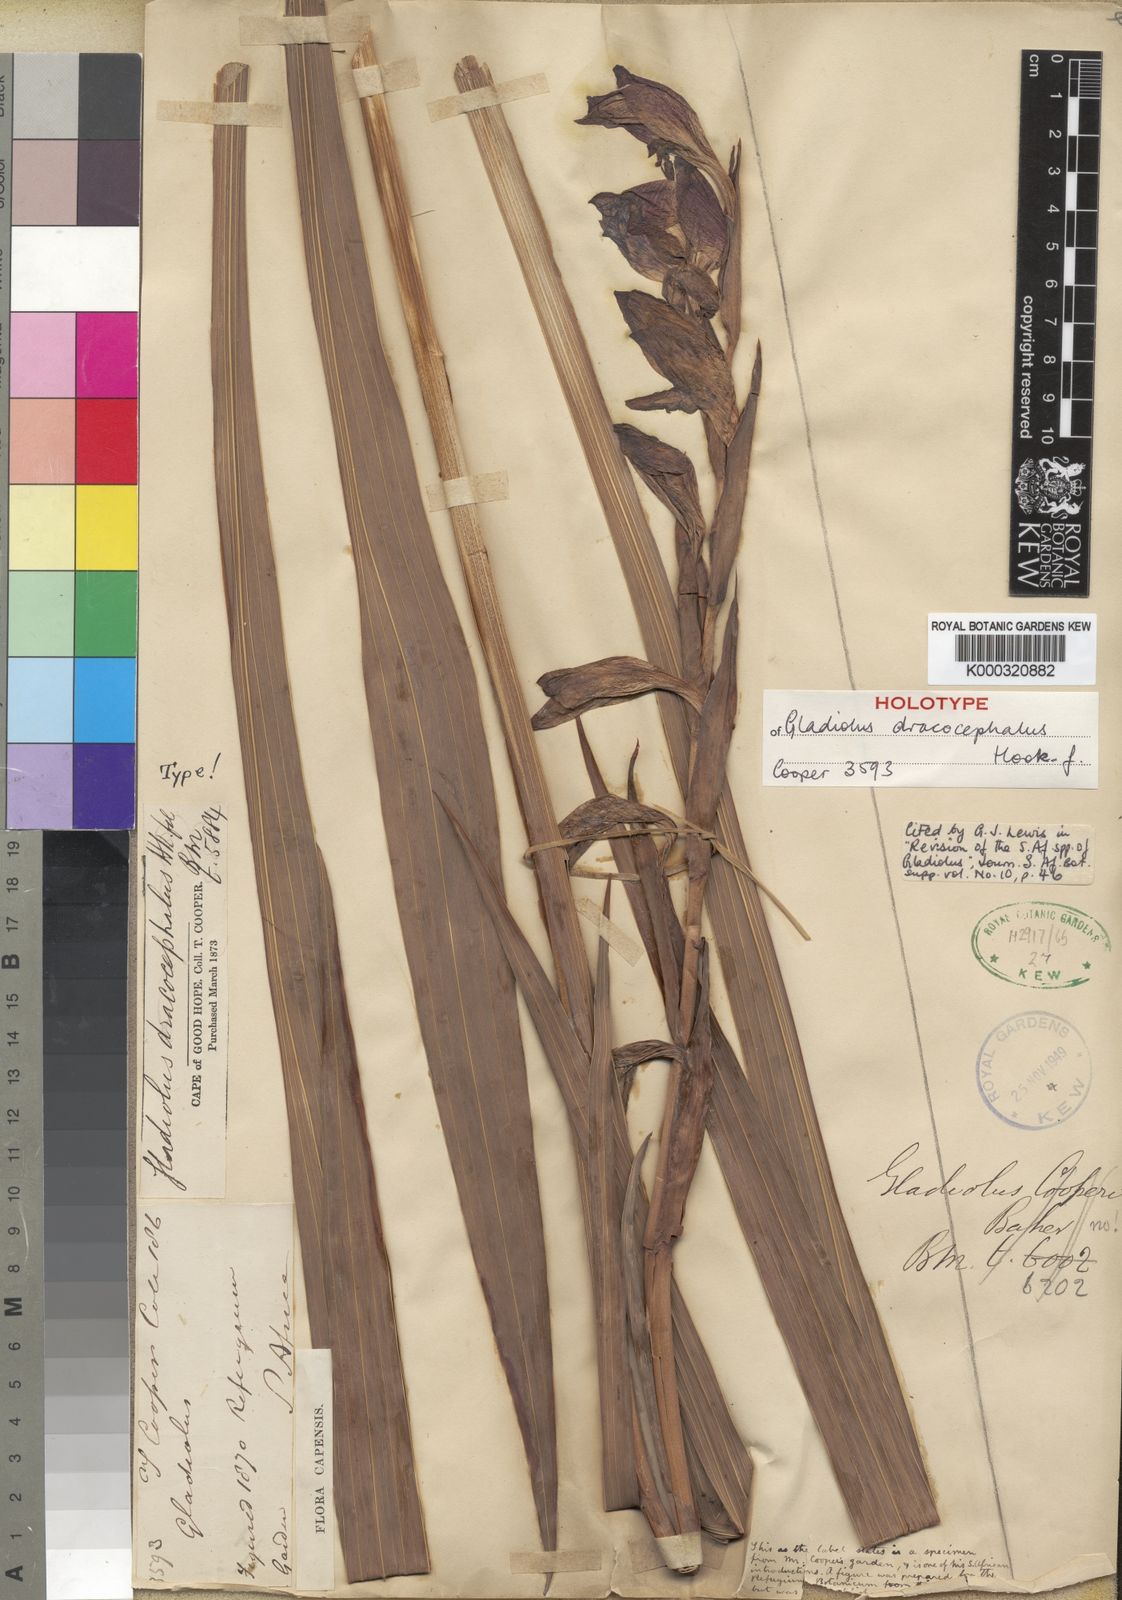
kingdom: Plantae
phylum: Tracheophyta
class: Liliopsida
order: Asparagales
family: Iridaceae
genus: Gladiolus
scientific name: Gladiolus dalenii
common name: Cornflag
